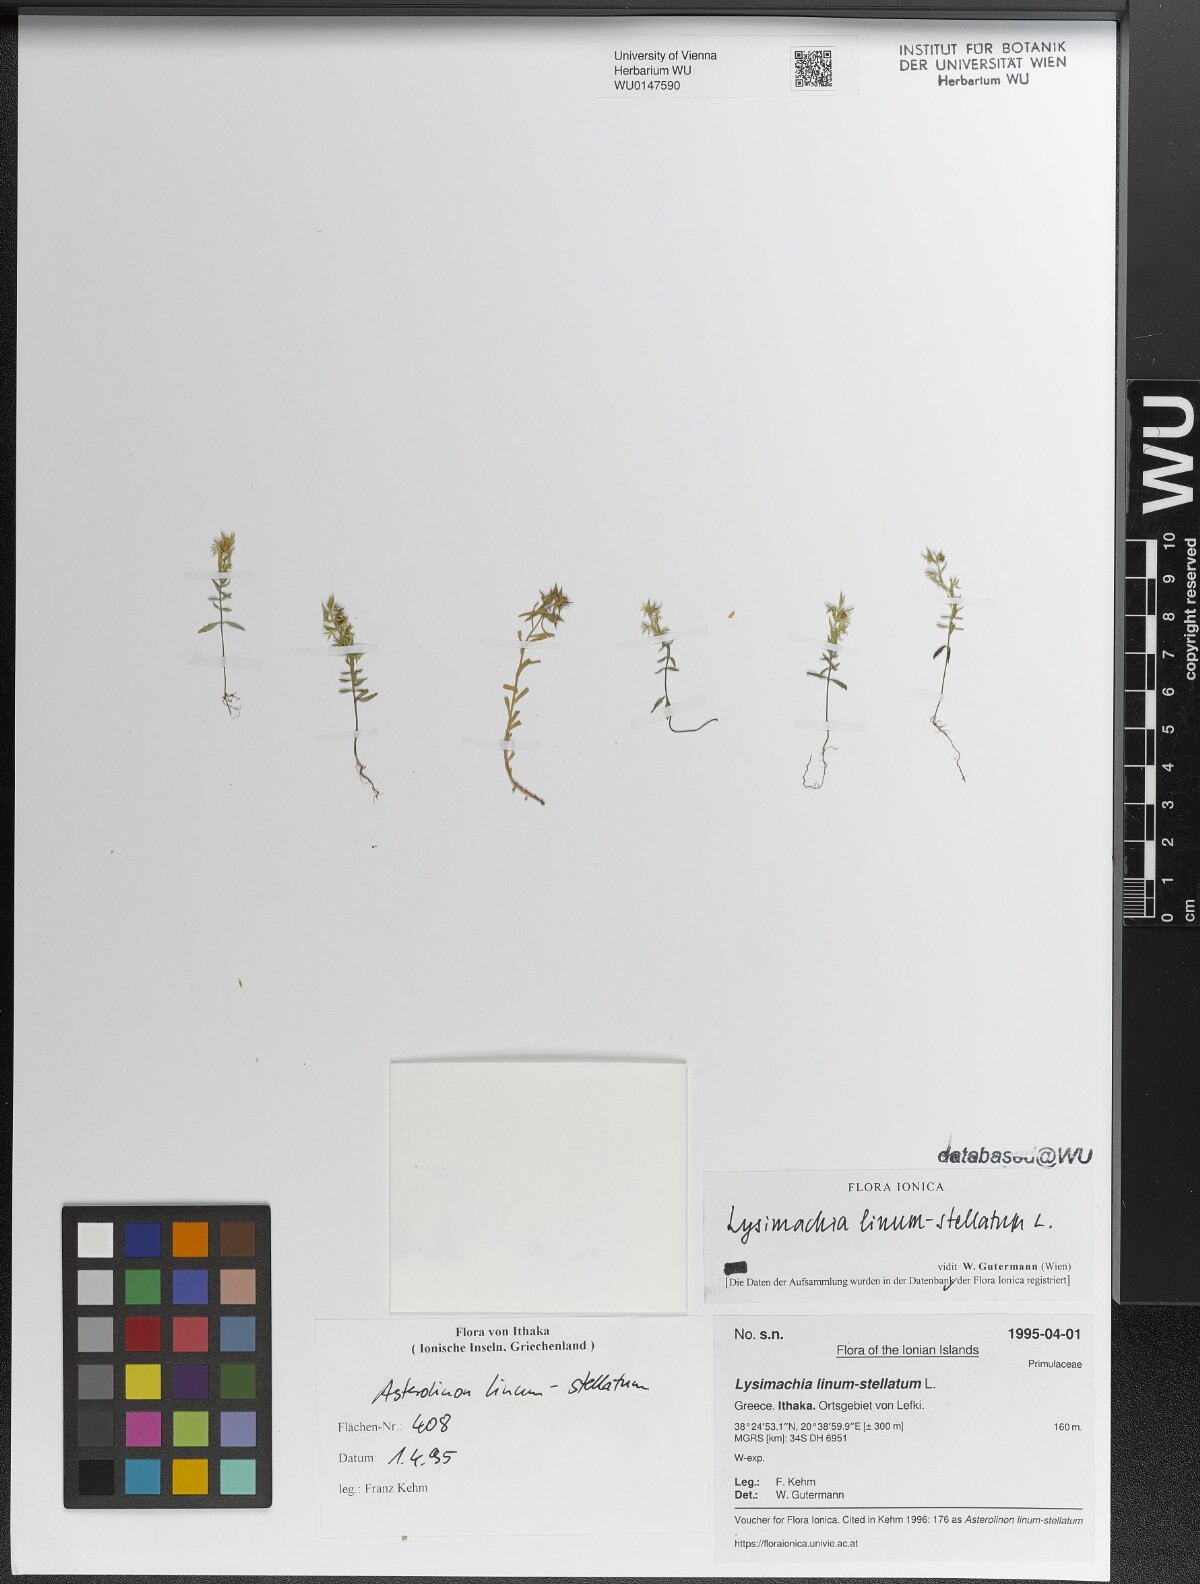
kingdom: Plantae
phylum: Tracheophyta
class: Magnoliopsida
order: Ericales
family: Primulaceae
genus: Lysimachia
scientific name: Lysimachia linum-stellatum
